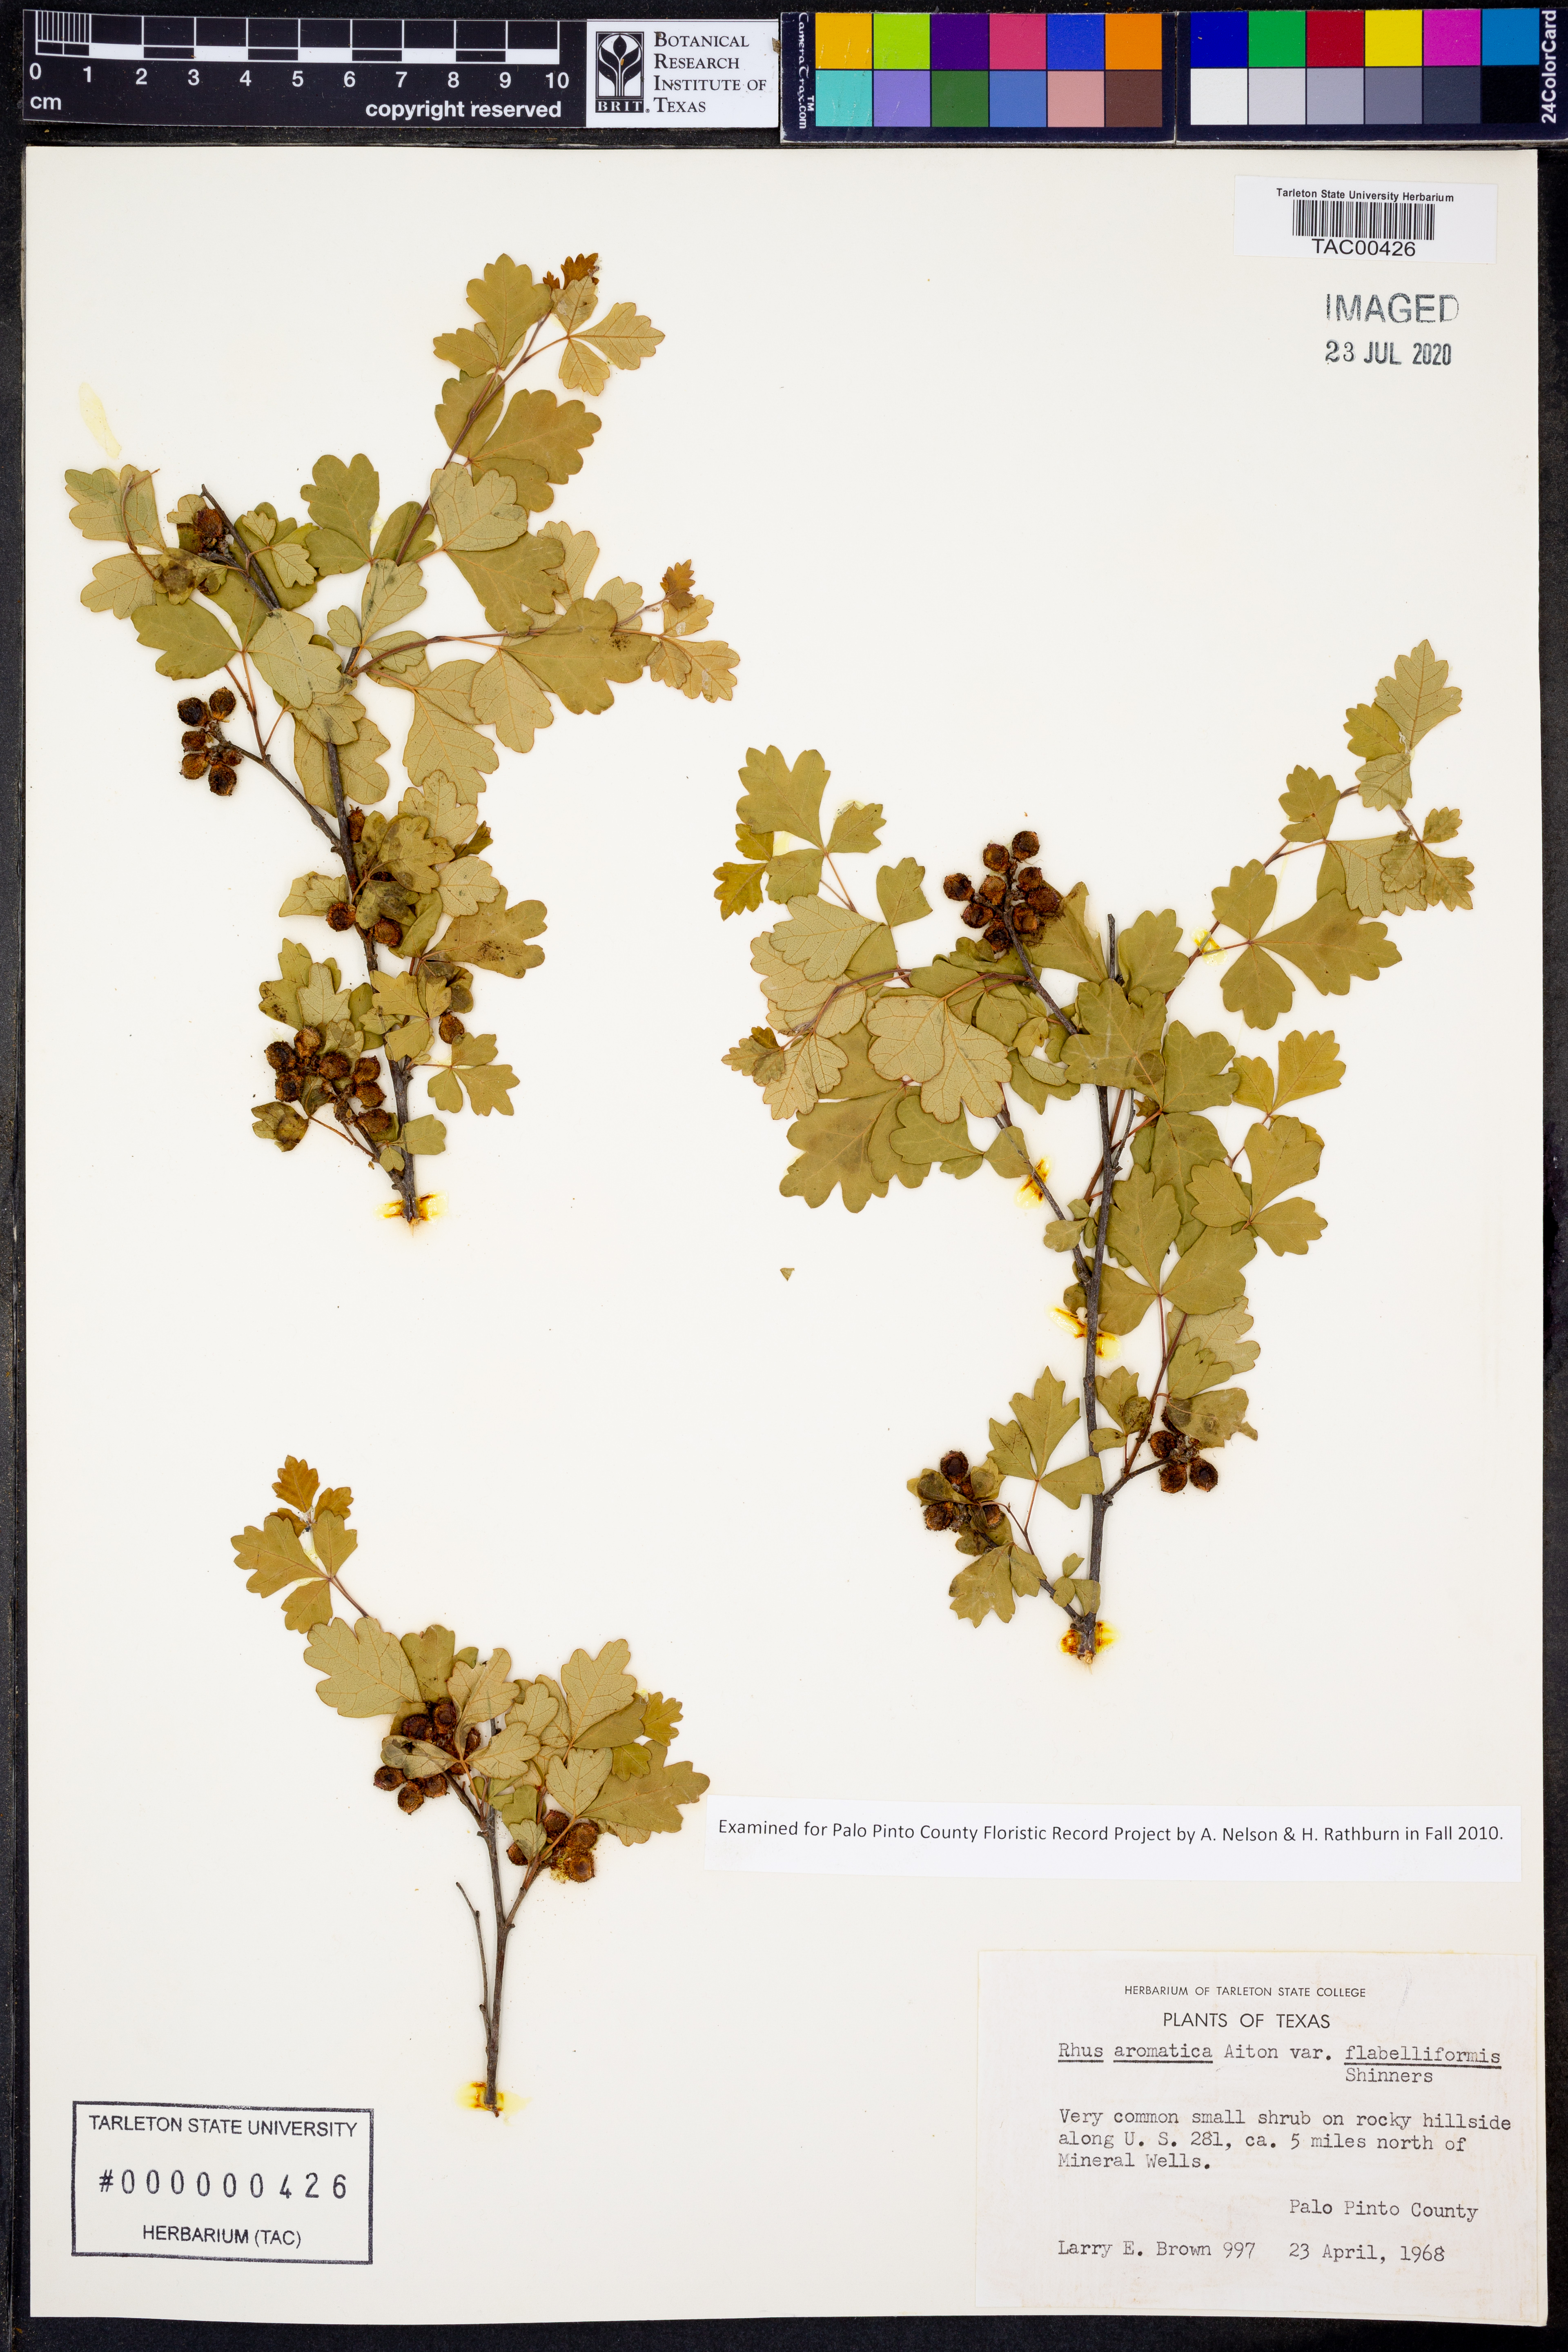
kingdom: Plantae
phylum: Tracheophyta
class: Magnoliopsida
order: Sapindales
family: Anacardiaceae
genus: Rhus
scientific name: Rhus trilobata
